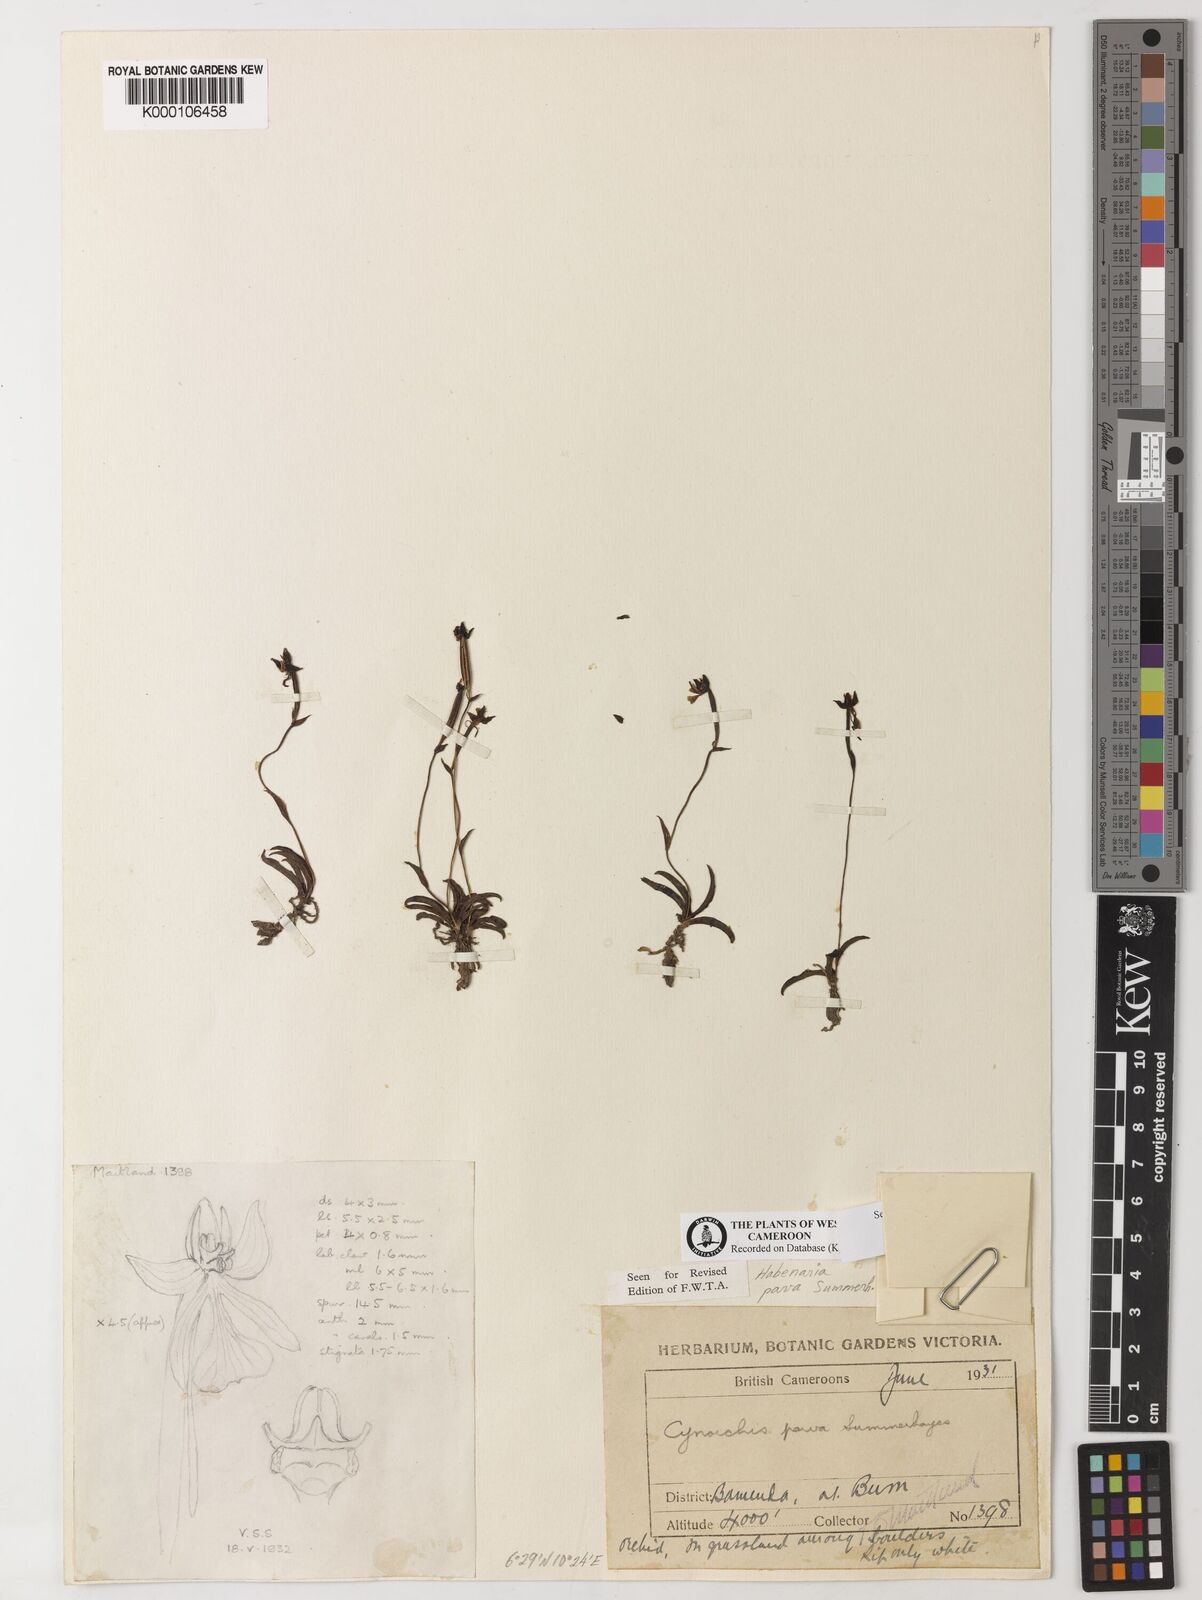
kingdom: Plantae
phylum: Tracheophyta
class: Liliopsida
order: Asparagales
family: Orchidaceae
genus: Habenaria
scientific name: Habenaria
